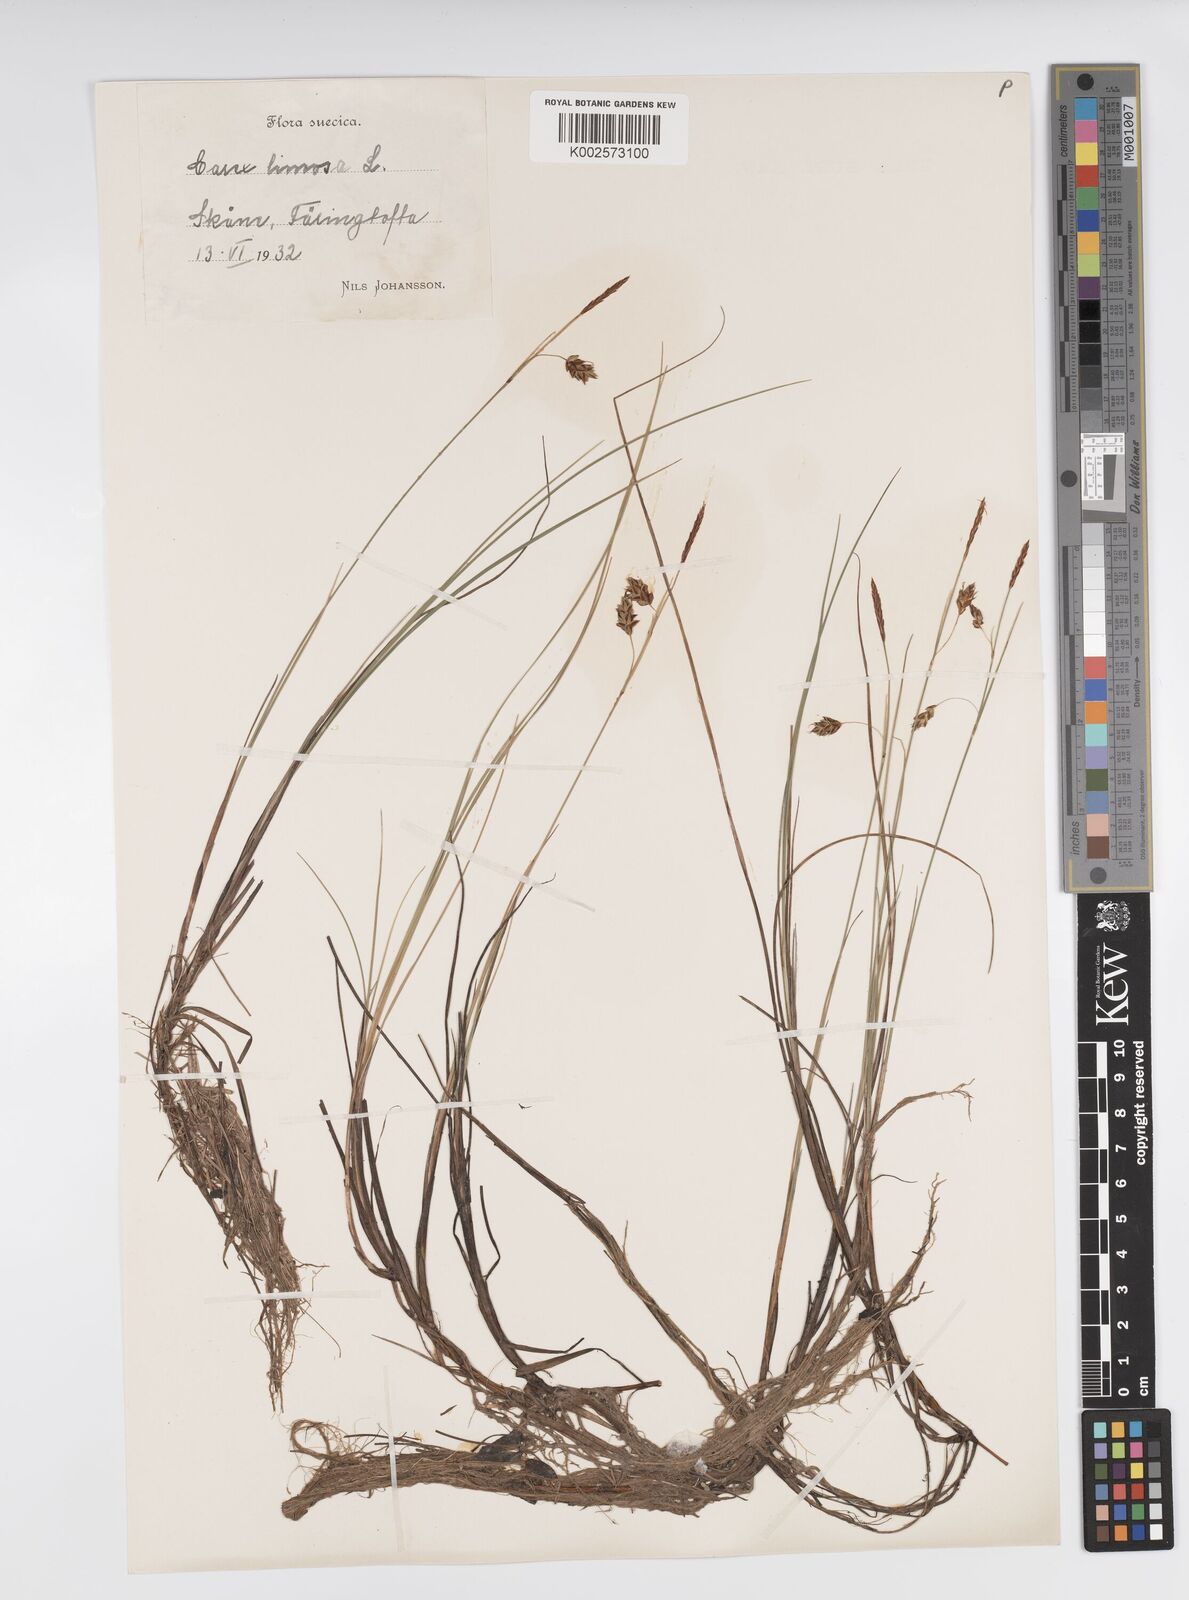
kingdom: Plantae
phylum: Tracheophyta
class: Liliopsida
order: Poales
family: Cyperaceae
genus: Carex
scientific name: Carex limosa
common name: Bog sedge
